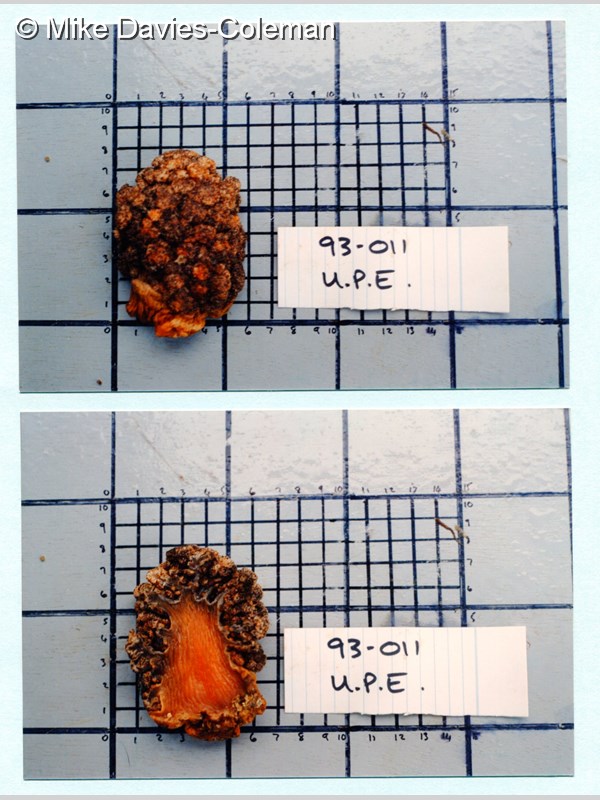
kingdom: Animalia
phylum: Cnidaria
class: Anthozoa
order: Malacalcyonacea
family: Capnellidae
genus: Eunephthya
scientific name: Eunephthya thyrsoidea
